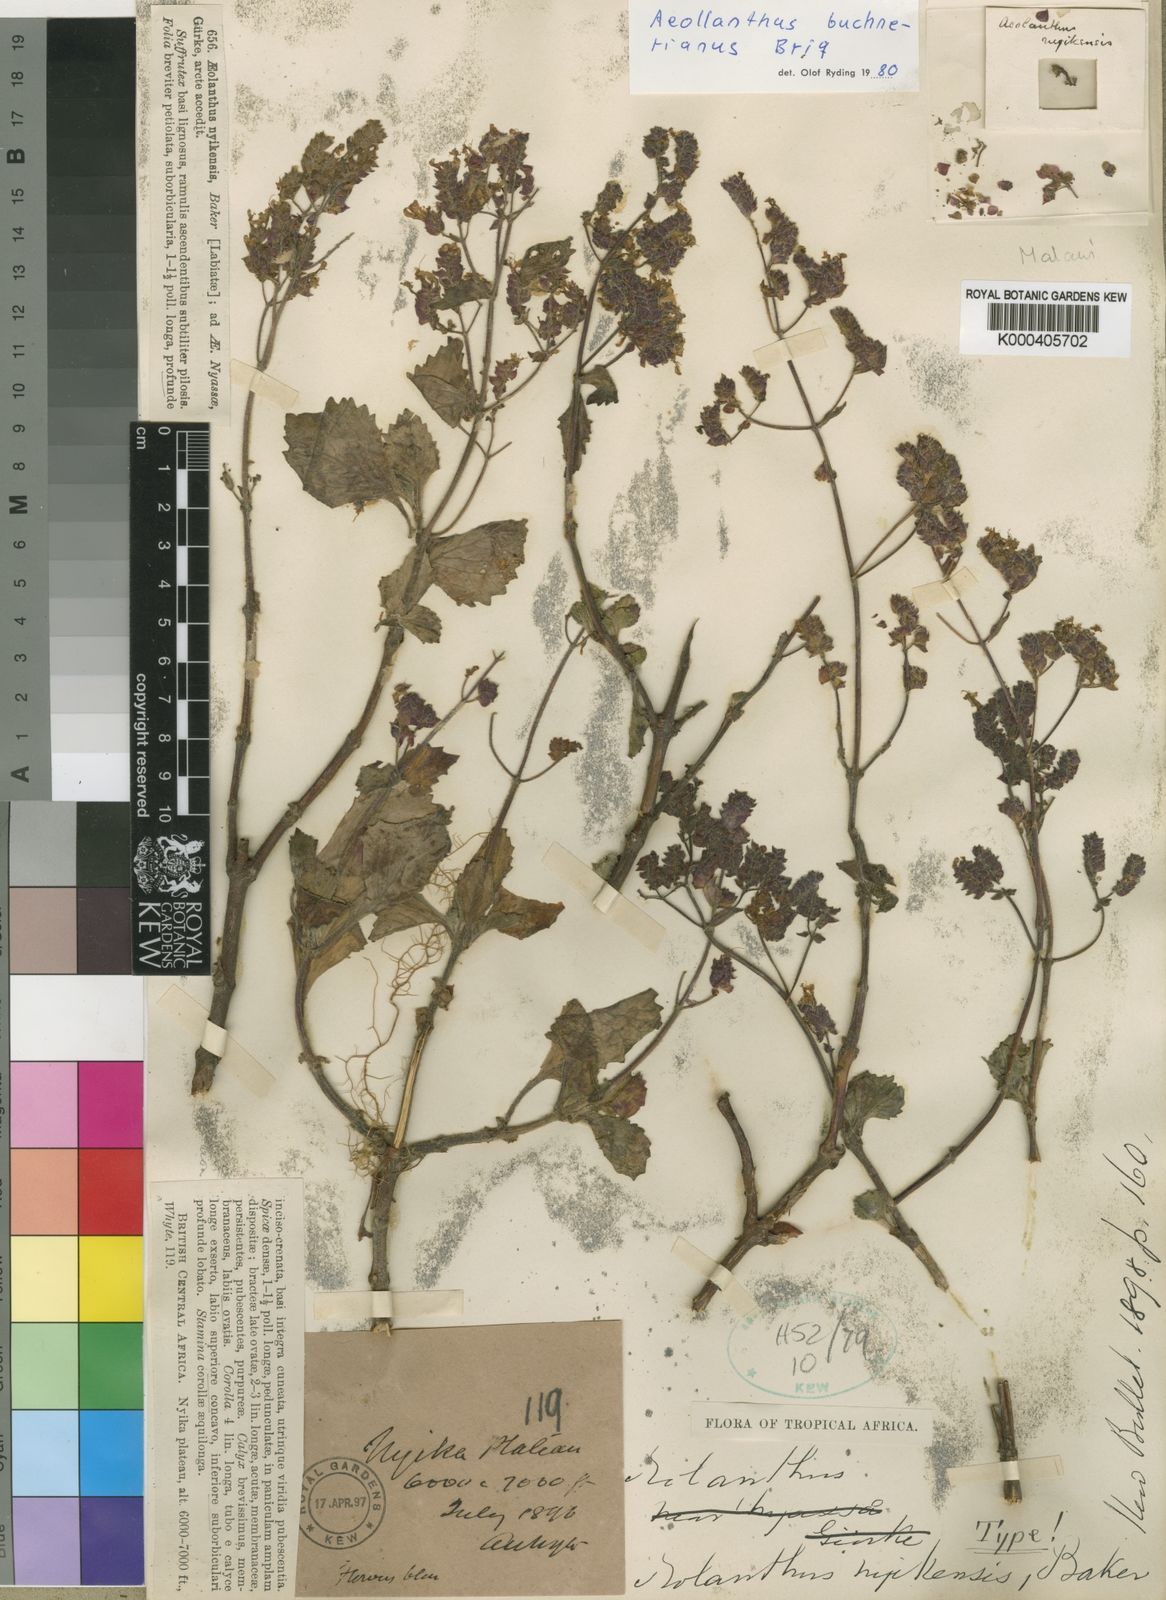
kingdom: Plantae
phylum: Tracheophyta
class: Magnoliopsida
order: Lamiales
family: Lamiaceae
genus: Aeollanthus
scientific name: Aeollanthus buchnerianus
